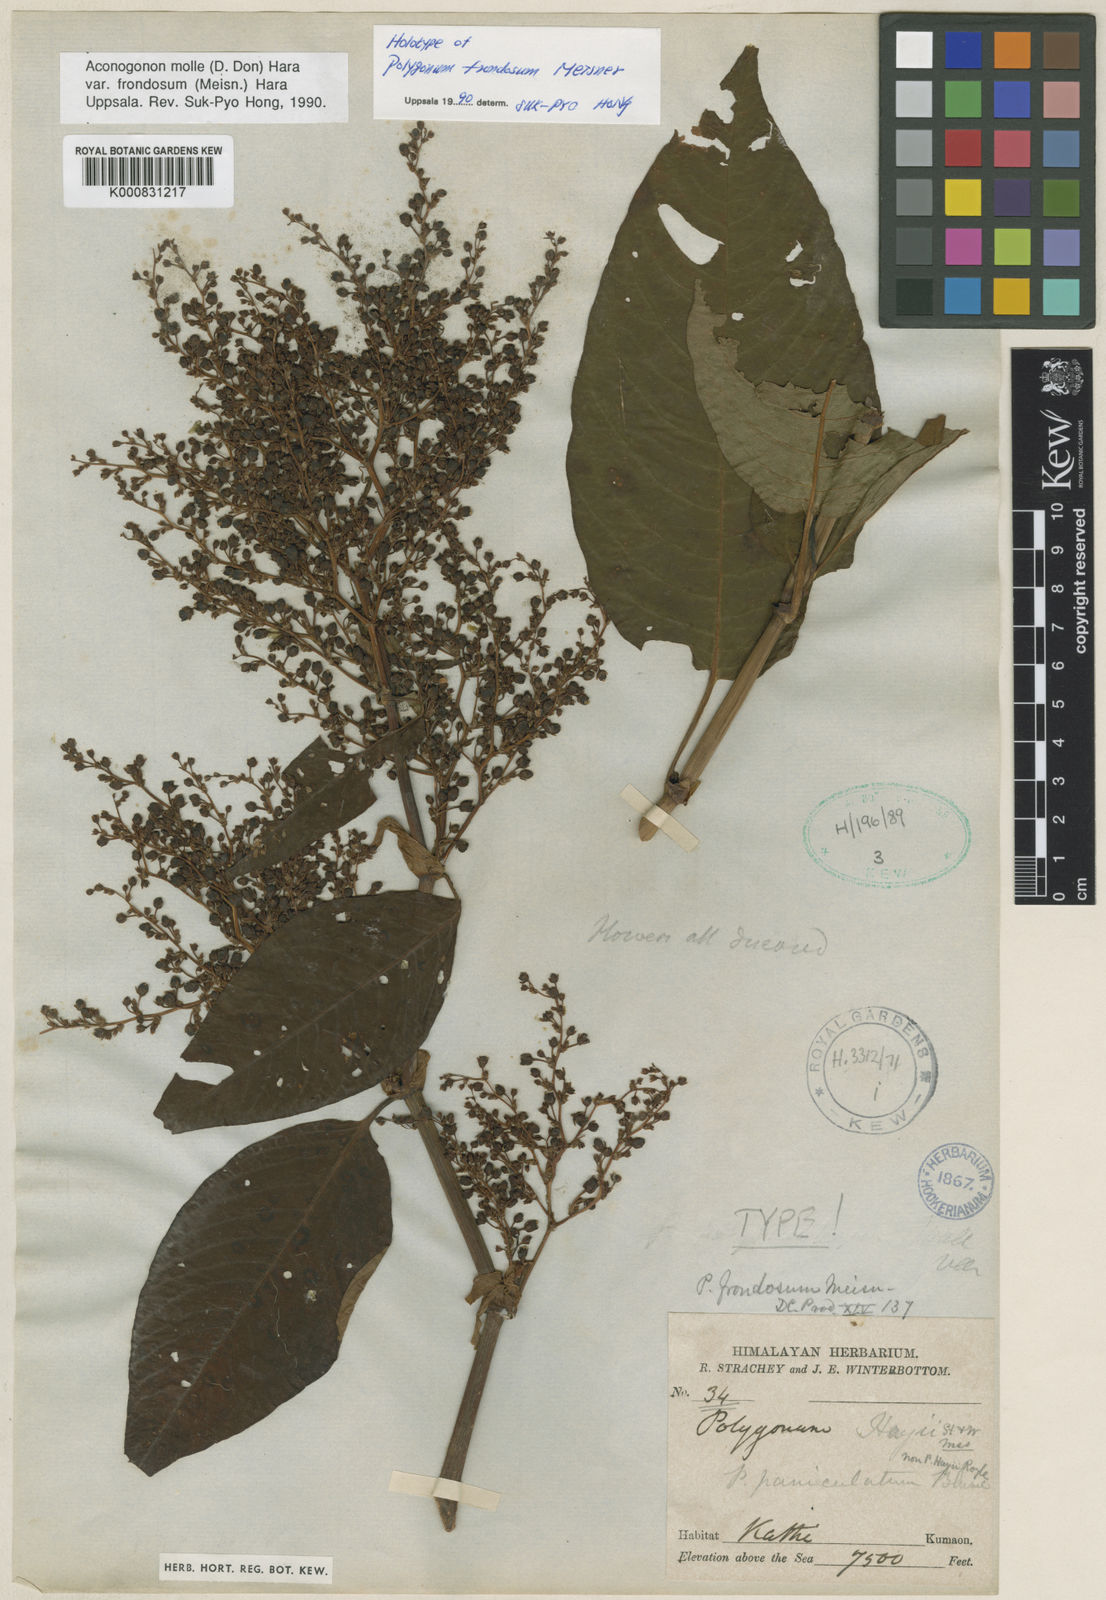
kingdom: Plantae
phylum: Tracheophyta
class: Magnoliopsida
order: Caryophyllales
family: Polygonaceae
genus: Koenigia
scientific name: Koenigia mollis
